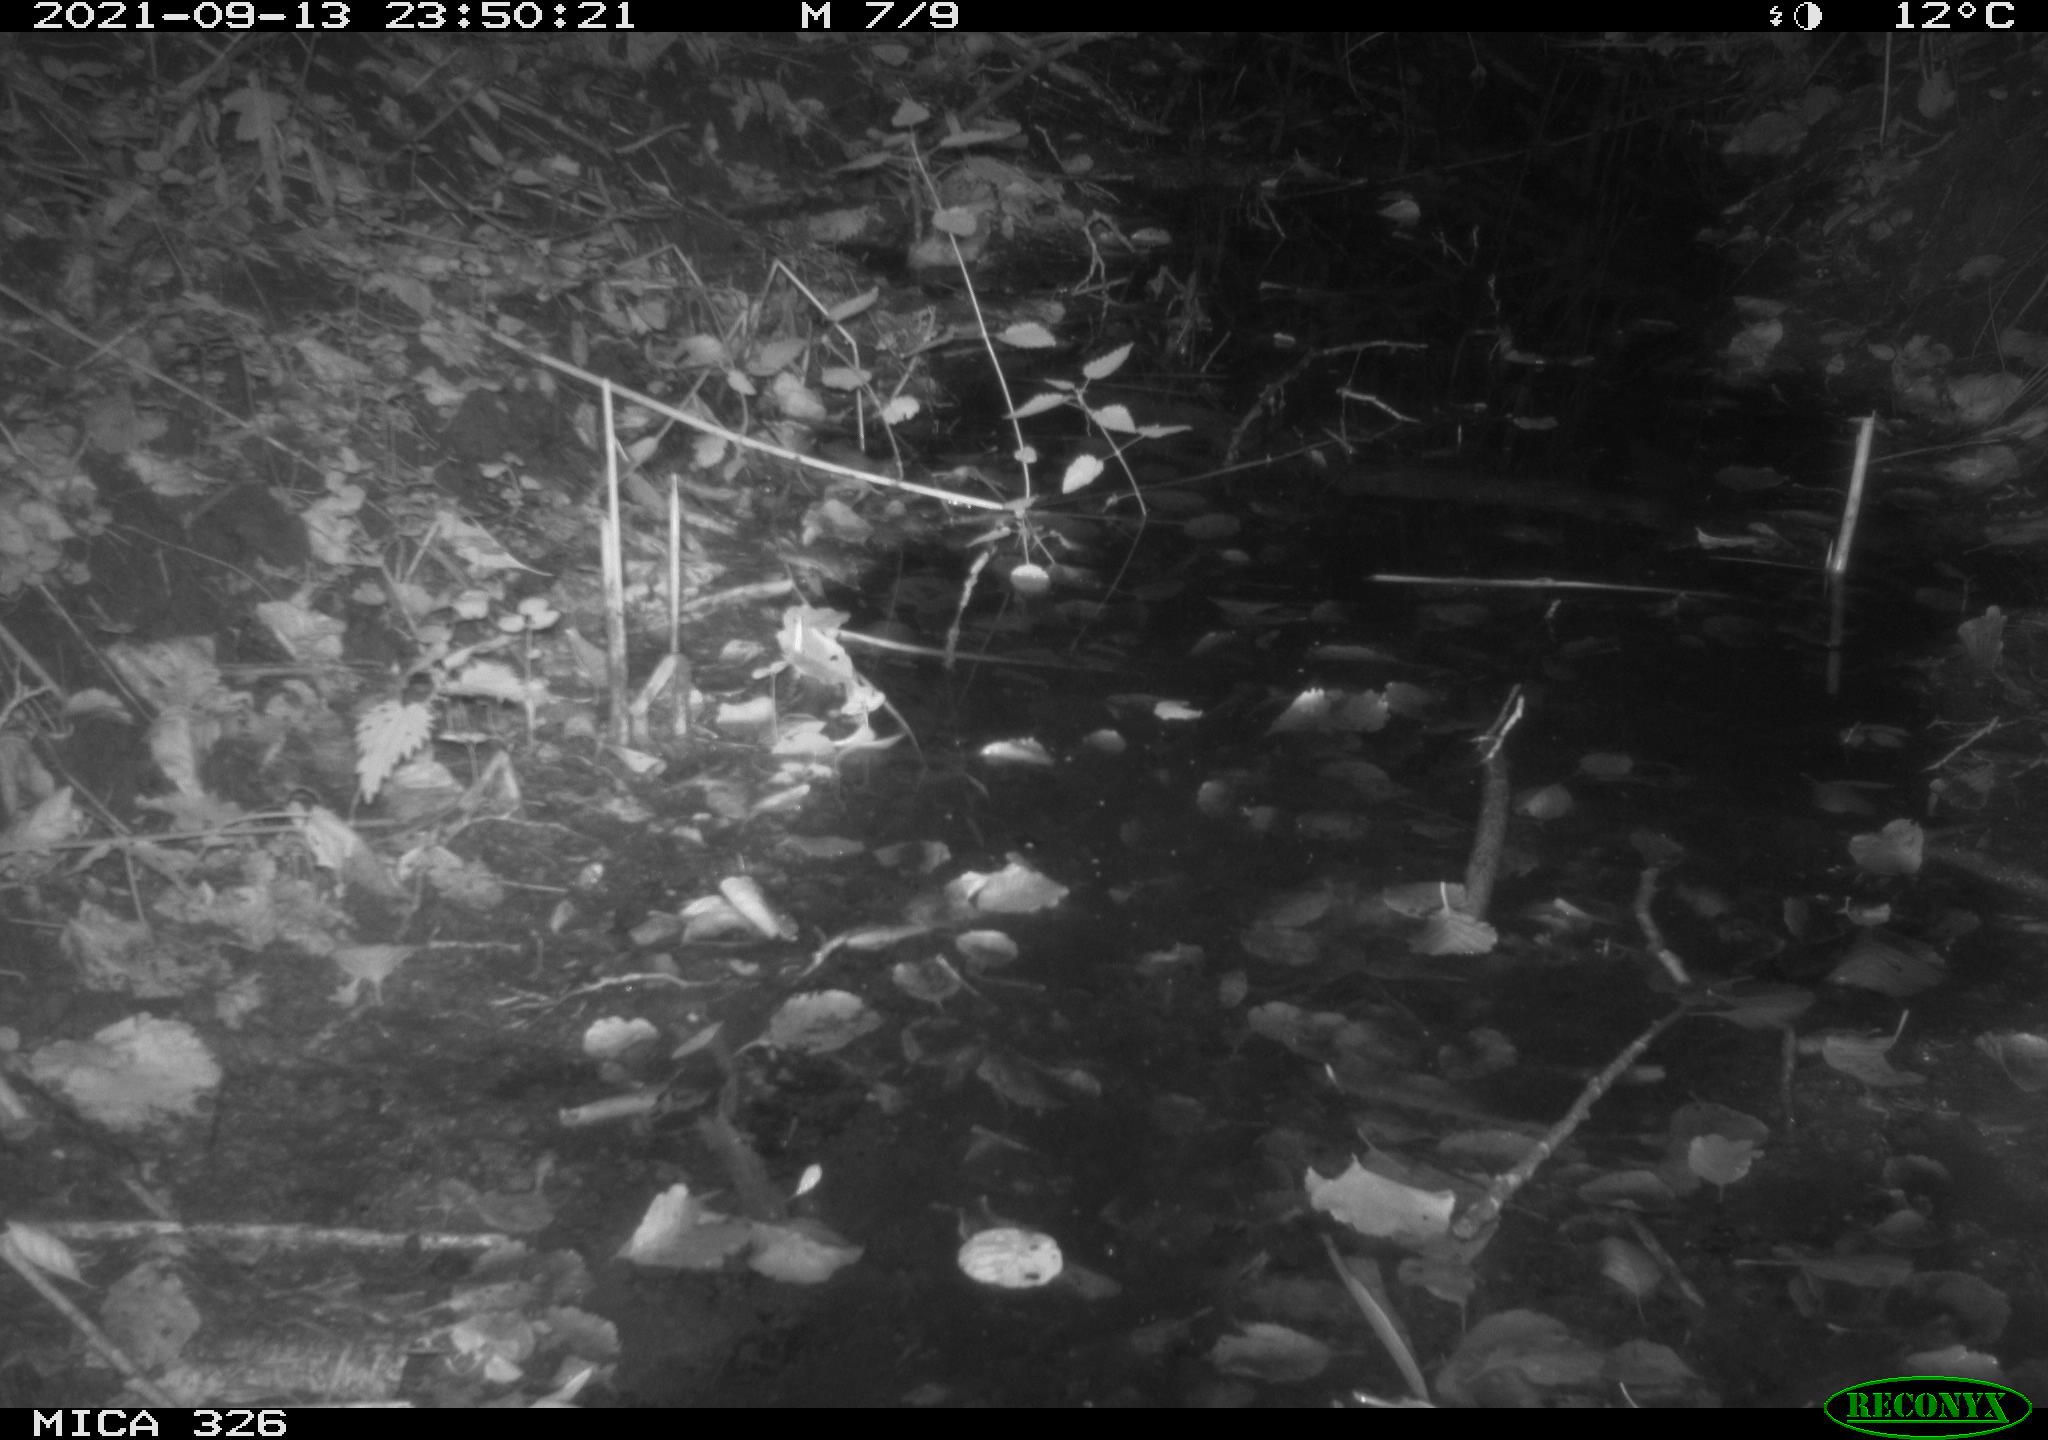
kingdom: Animalia
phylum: Chordata
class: Mammalia
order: Rodentia
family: Muridae
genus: Rattus
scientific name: Rattus norvegicus
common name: Brown rat
